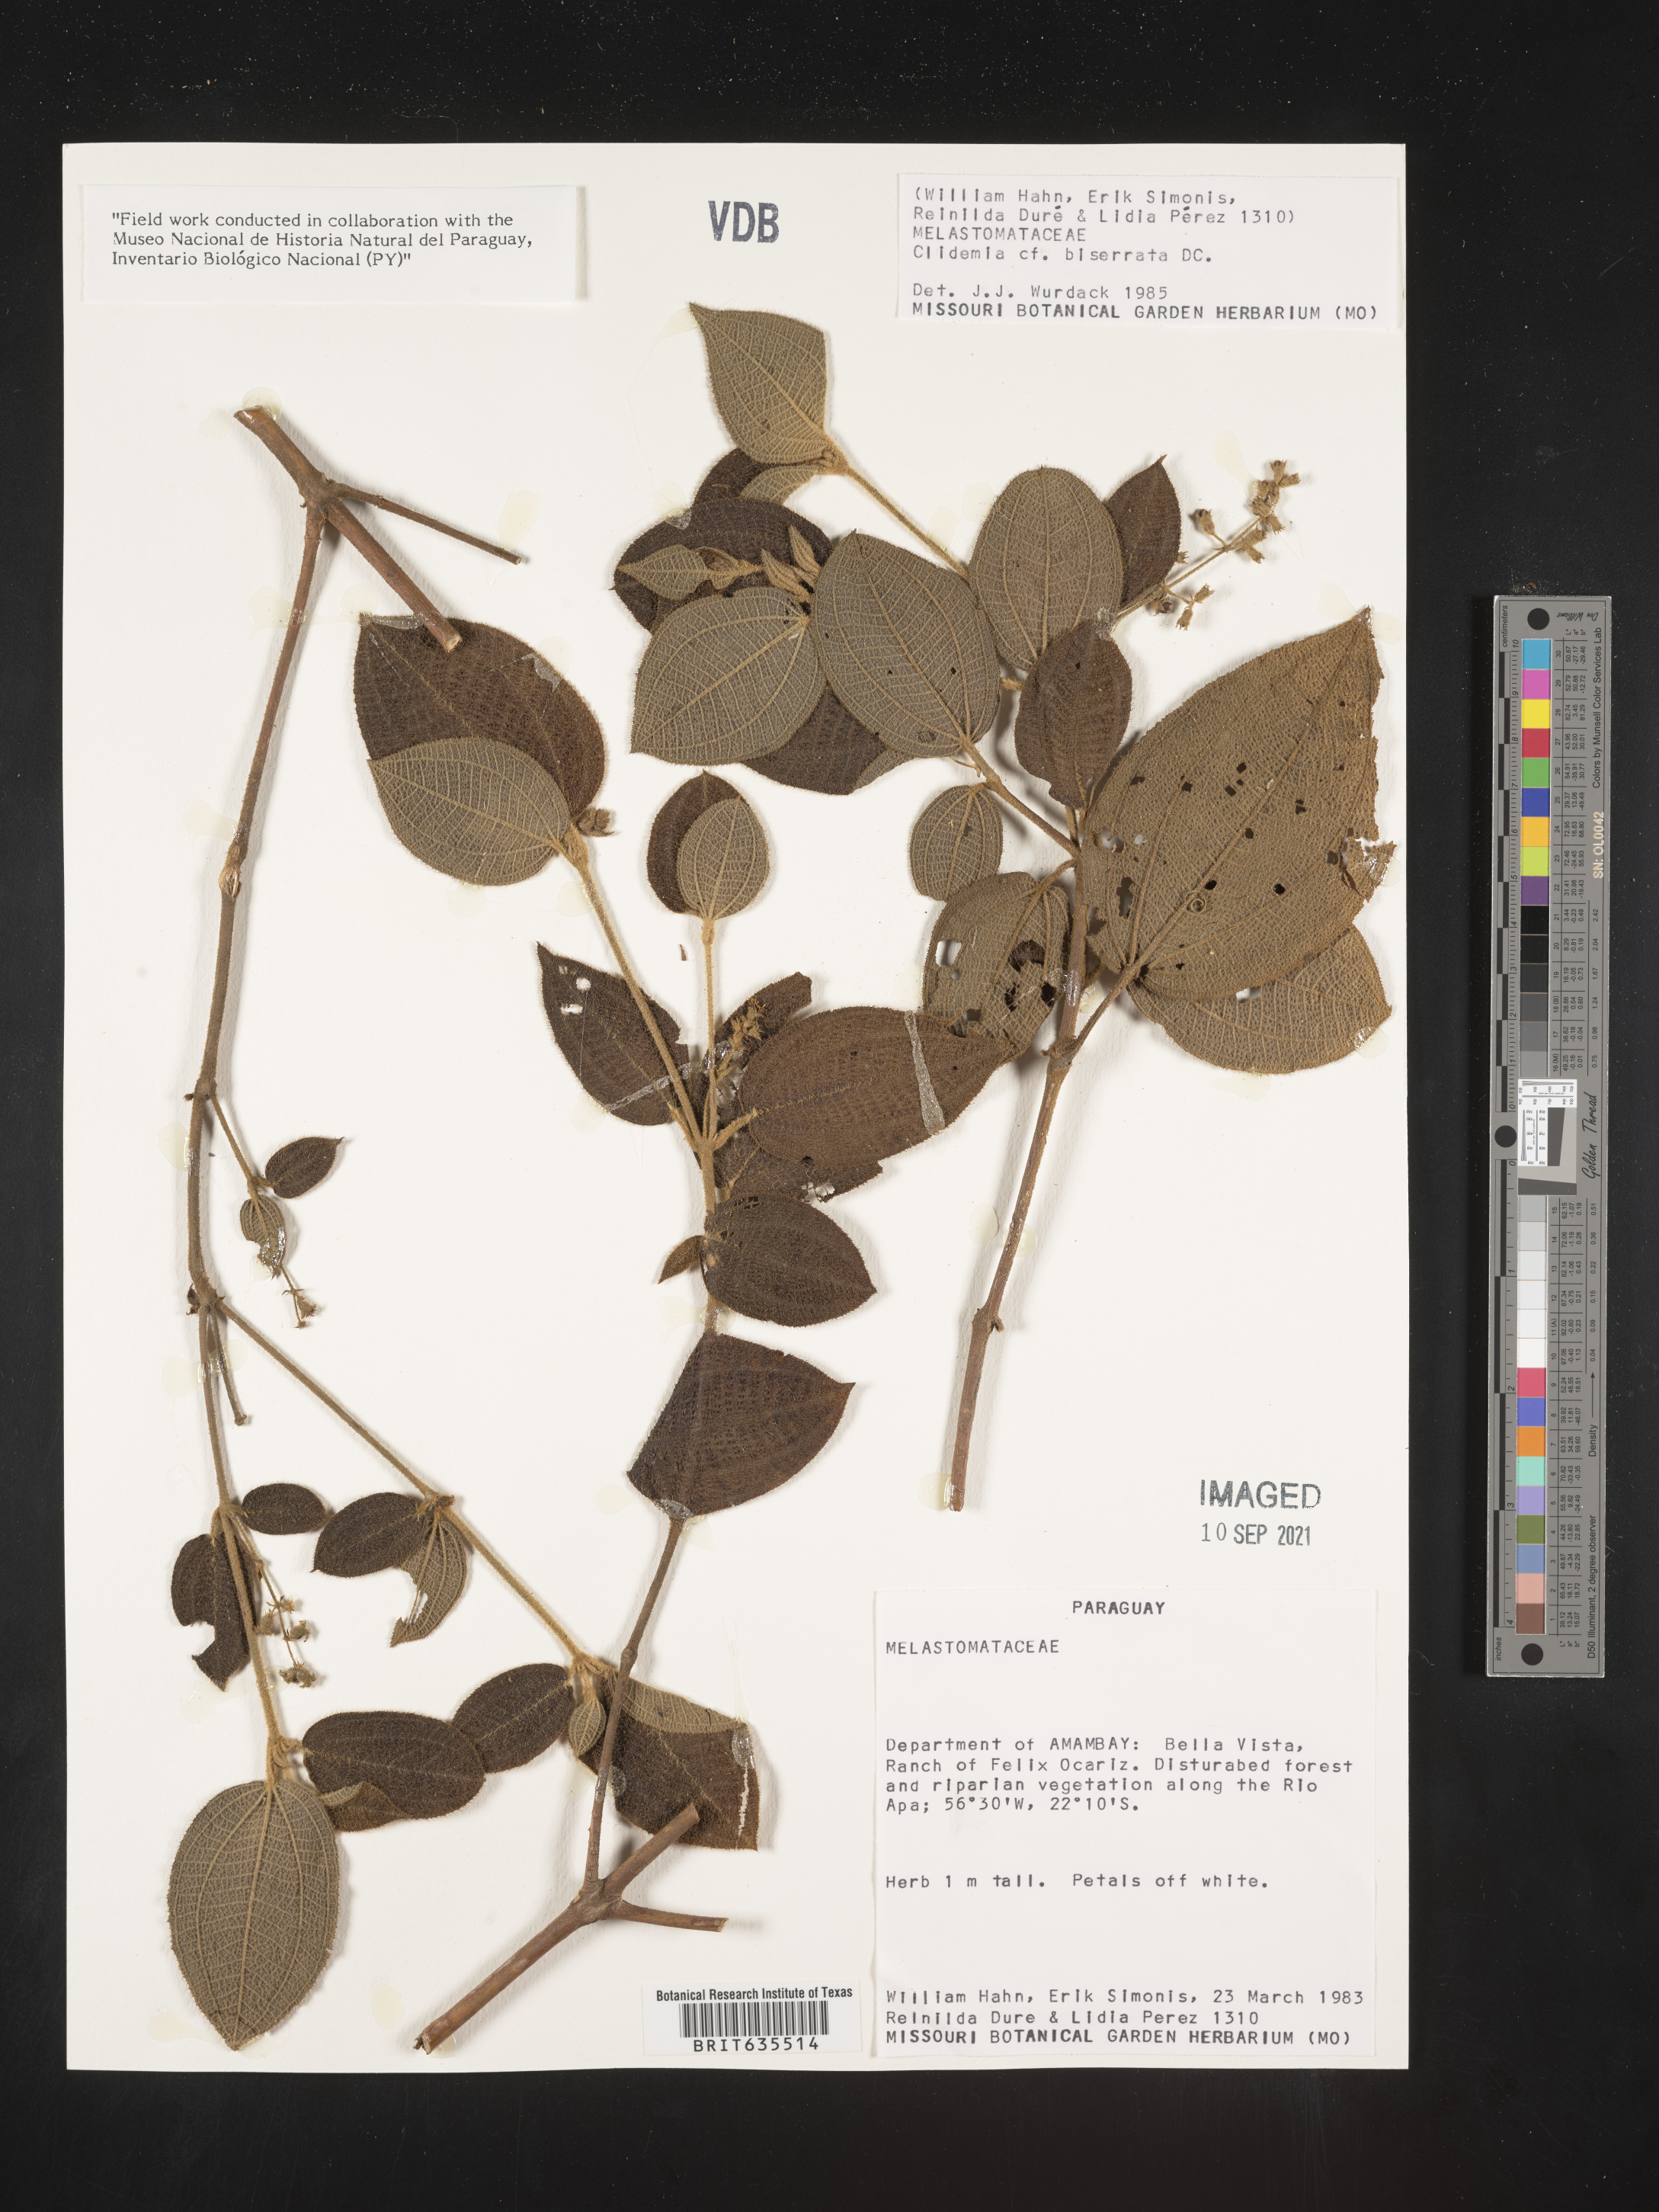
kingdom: Plantae
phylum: Tracheophyta
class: Magnoliopsida
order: Myrtales
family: Melastomataceae
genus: Miconia
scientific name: Miconia
